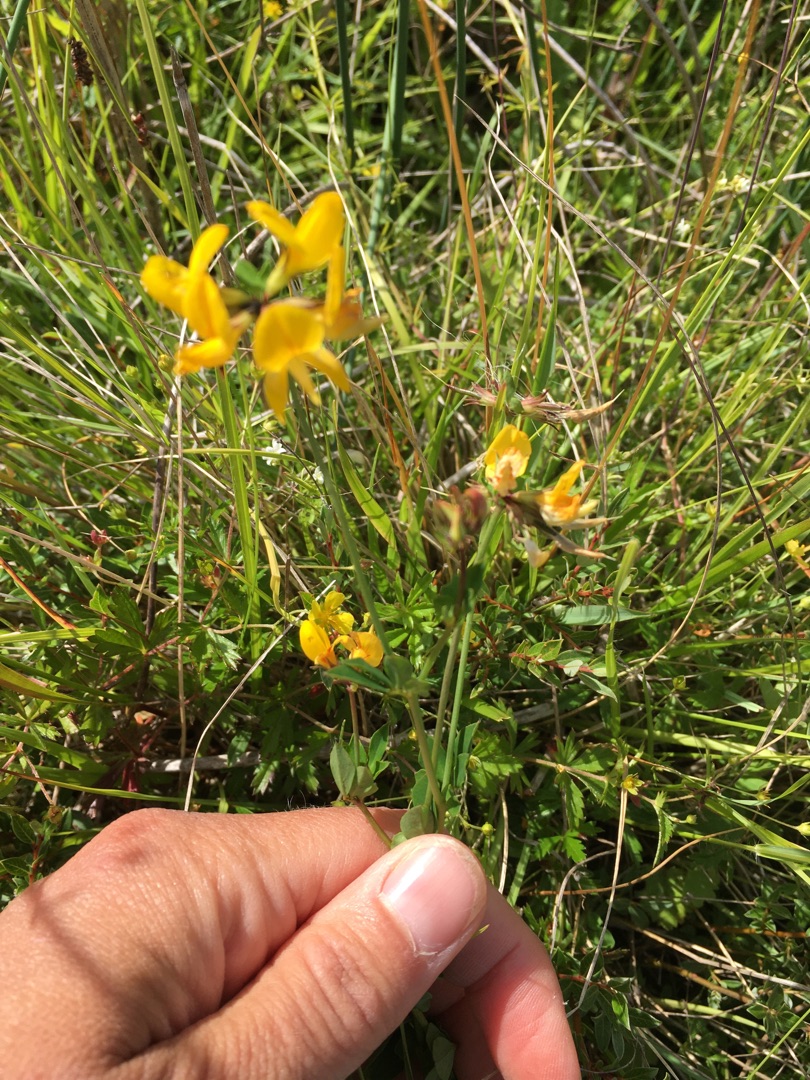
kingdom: Plantae
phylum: Tracheophyta
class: Magnoliopsida
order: Fabales
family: Fabaceae
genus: Lotus
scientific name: Lotus corniculatus
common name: Almindelig kællingetand
